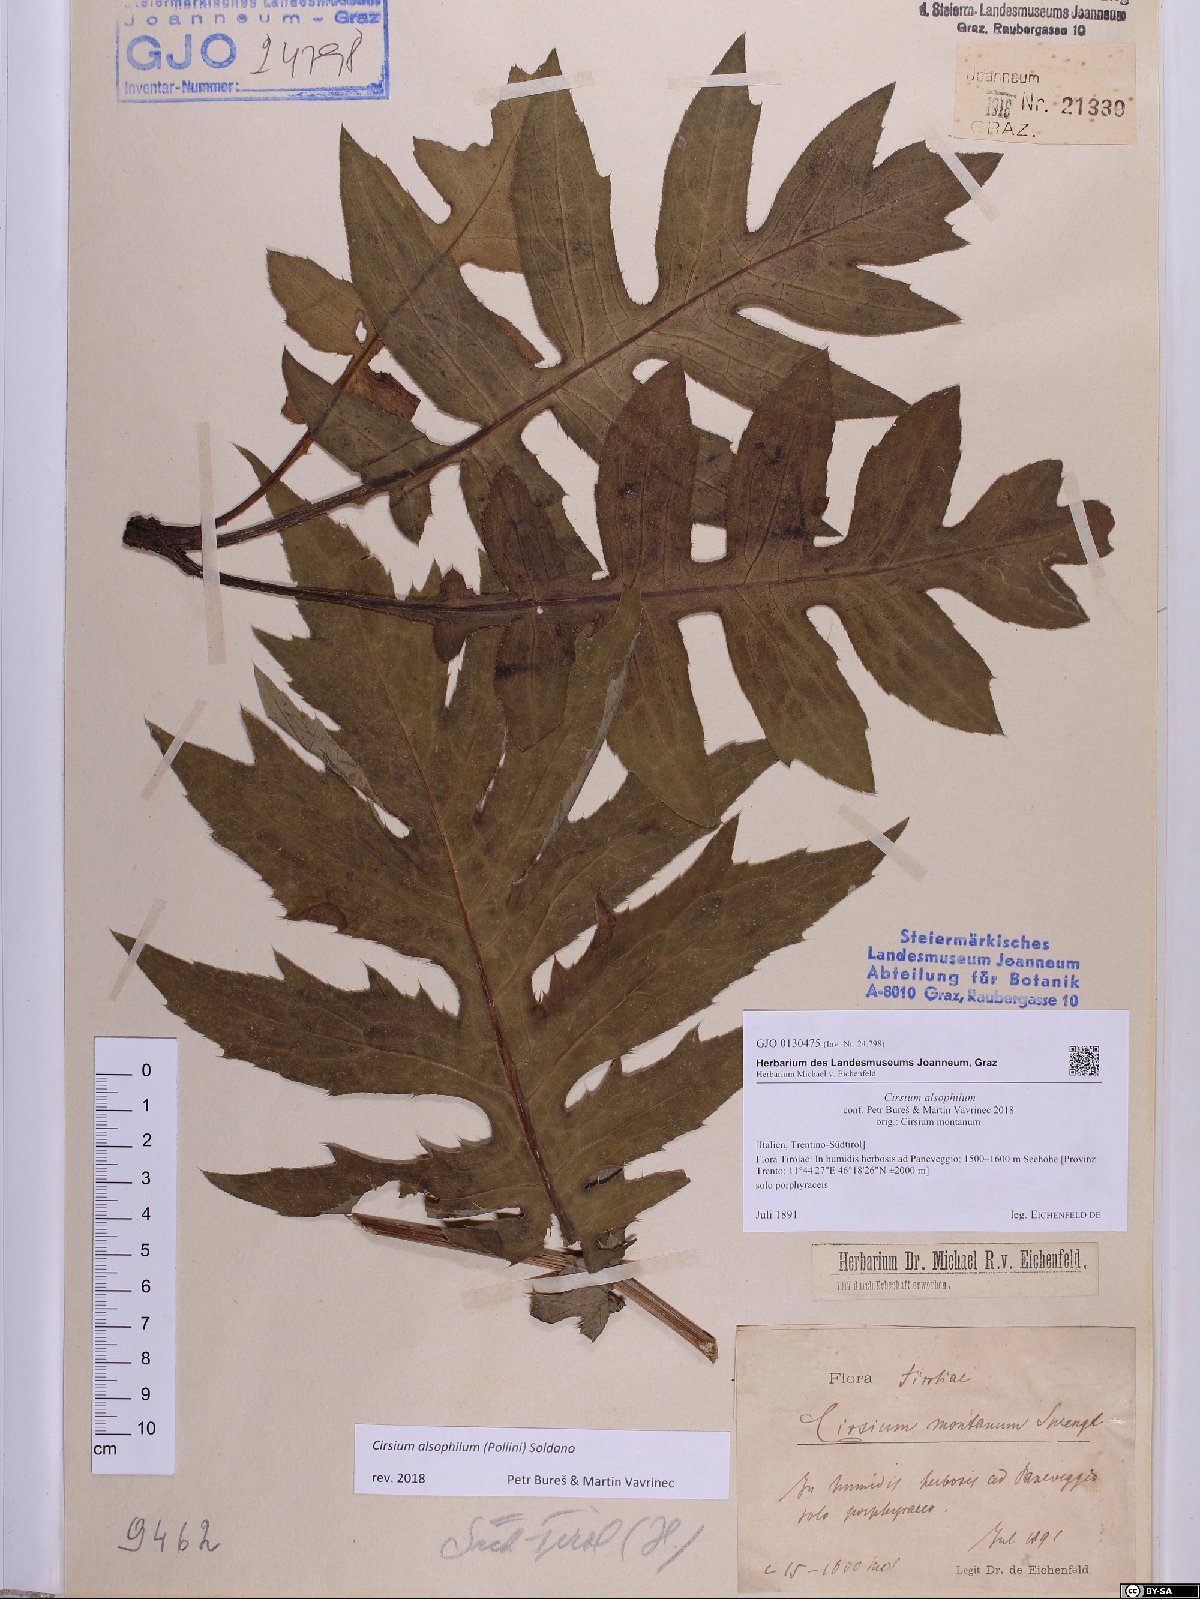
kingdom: Plantae
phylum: Tracheophyta
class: Magnoliopsida
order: Asterales
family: Asteraceae
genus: Cirsium
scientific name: Cirsium alsophilum
